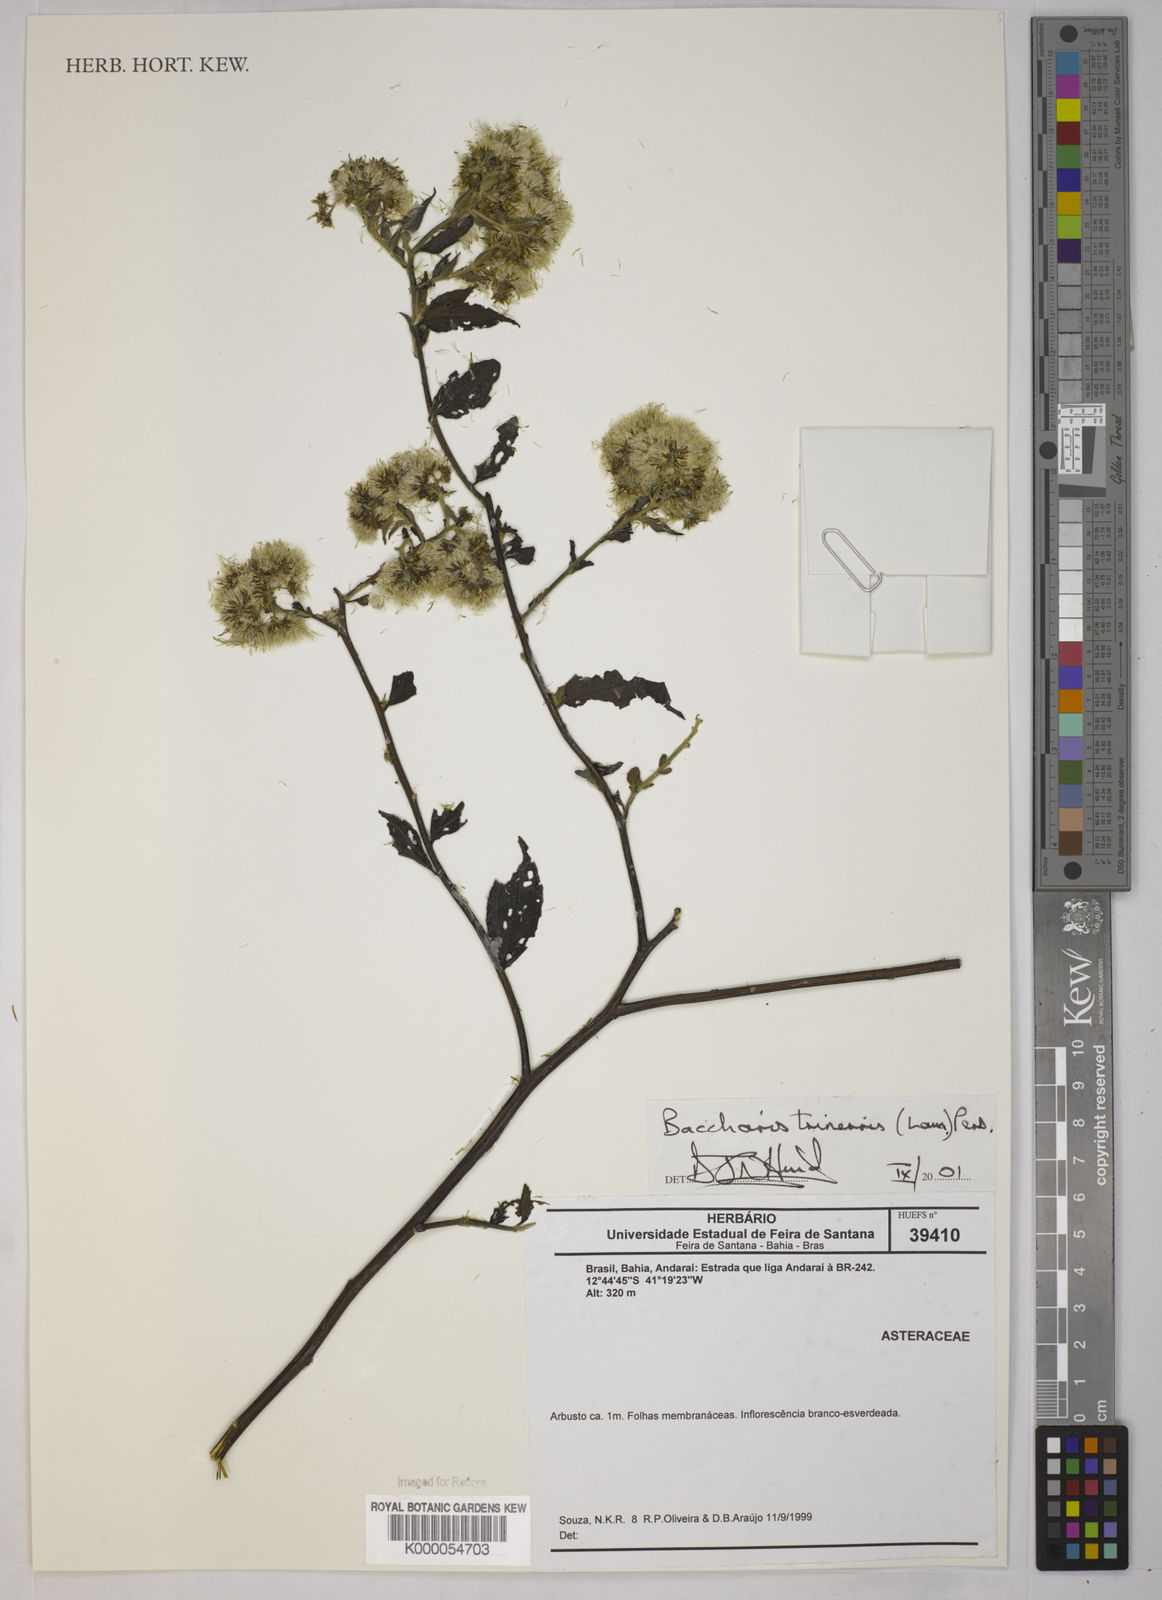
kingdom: Plantae
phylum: Tracheophyta
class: Magnoliopsida
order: Asterales
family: Asteraceae
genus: Baccharis
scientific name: Baccharis trinervis
